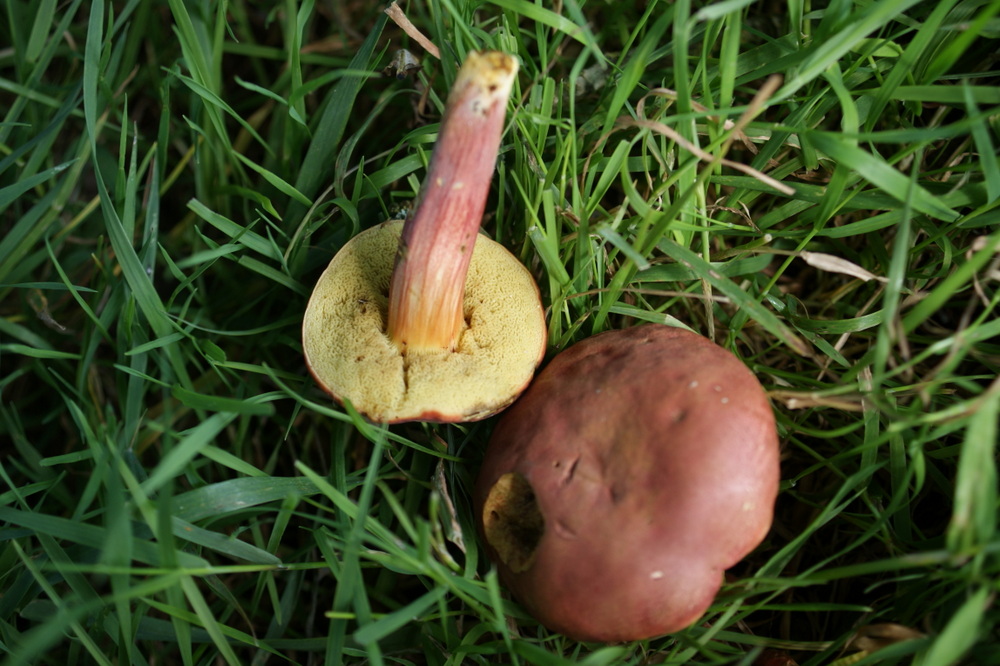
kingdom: Fungi
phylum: Basidiomycota
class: Agaricomycetes
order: Boletales
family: Boletaceae
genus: Hortiboletus
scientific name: Hortiboletus rubellus
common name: blodrød rørhat
